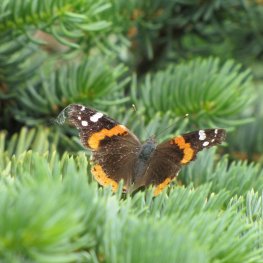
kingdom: Animalia
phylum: Arthropoda
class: Insecta
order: Lepidoptera
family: Nymphalidae
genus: Vanessa
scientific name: Vanessa atalanta
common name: Red Admiral
